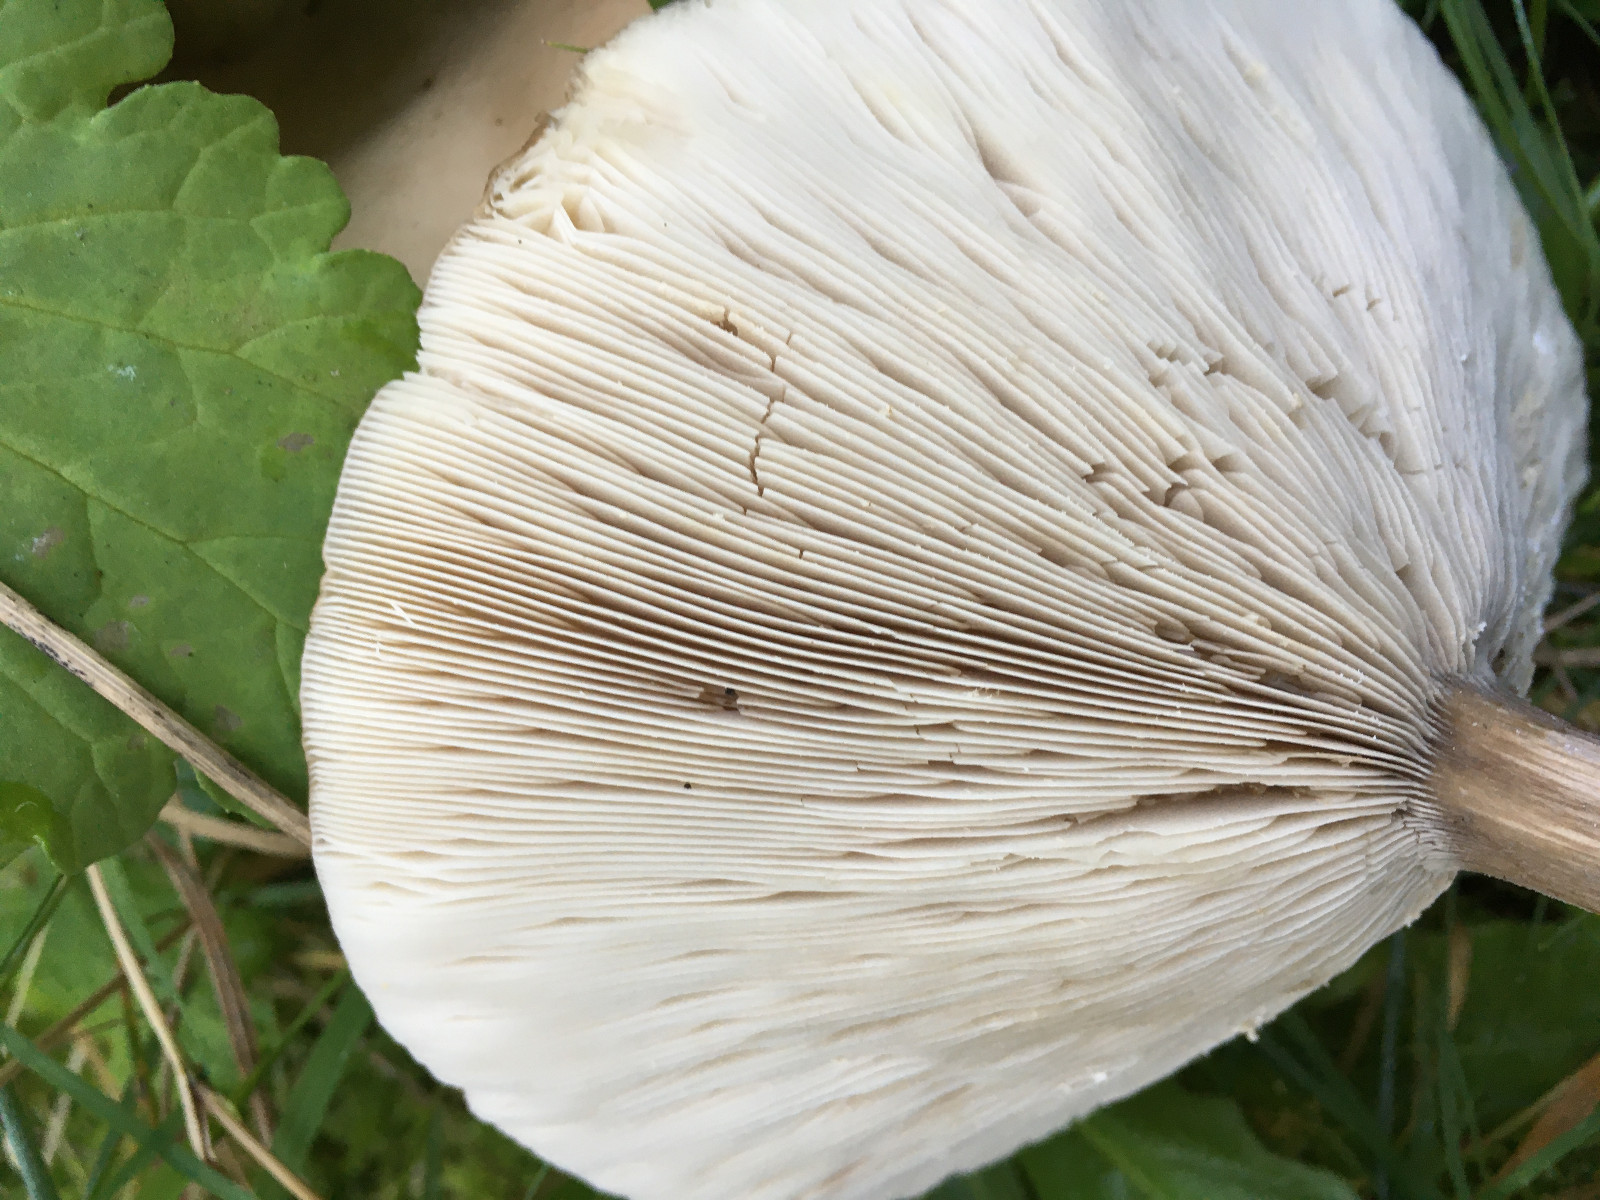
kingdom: Fungi
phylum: Basidiomycota
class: Agaricomycetes
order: Agaricales
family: Tricholomataceae
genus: Melanoleuca
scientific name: Melanoleuca grammopodia
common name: stribestokket munkehat
